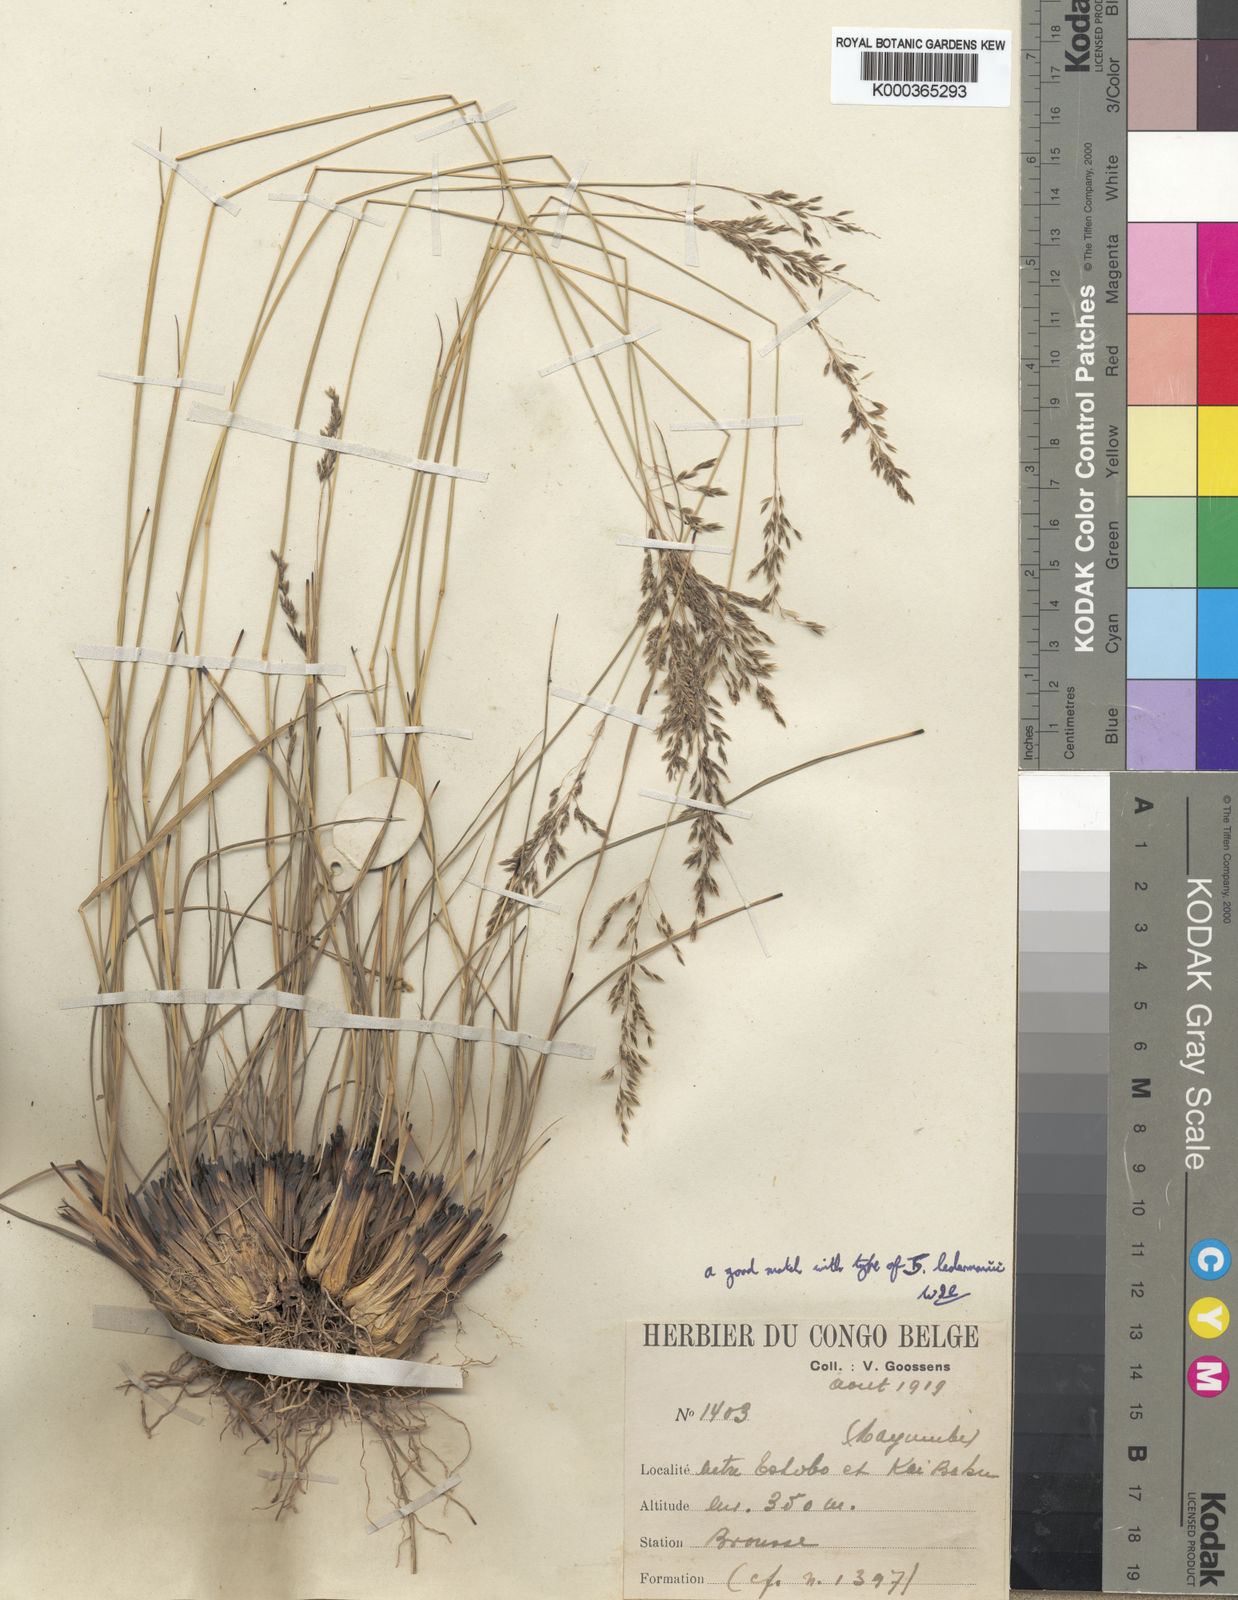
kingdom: Plantae
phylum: Tracheophyta
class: Liliopsida
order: Poales
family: Poaceae
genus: Sporobolus
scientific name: Sporobolus rigidifolius
